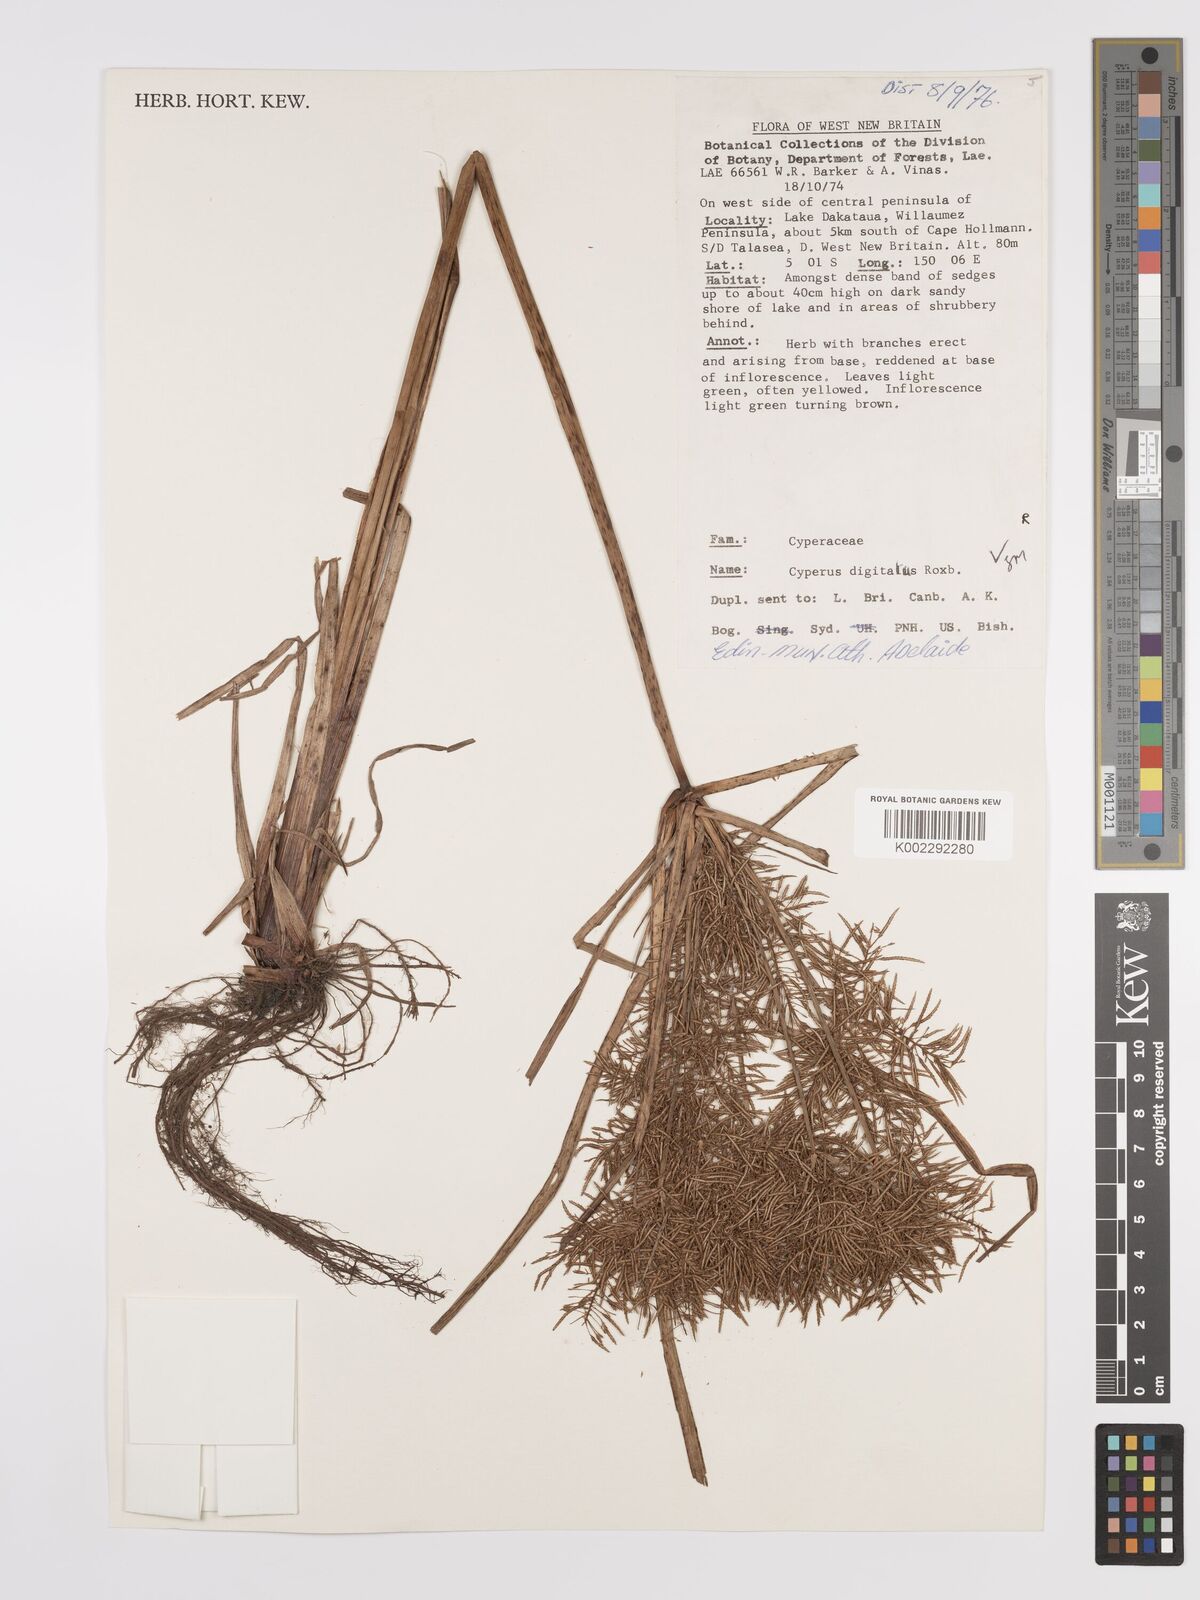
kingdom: Plantae
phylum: Tracheophyta
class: Liliopsida
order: Poales
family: Cyperaceae
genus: Cyperus
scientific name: Cyperus digitatus
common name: Finger flatsedge
